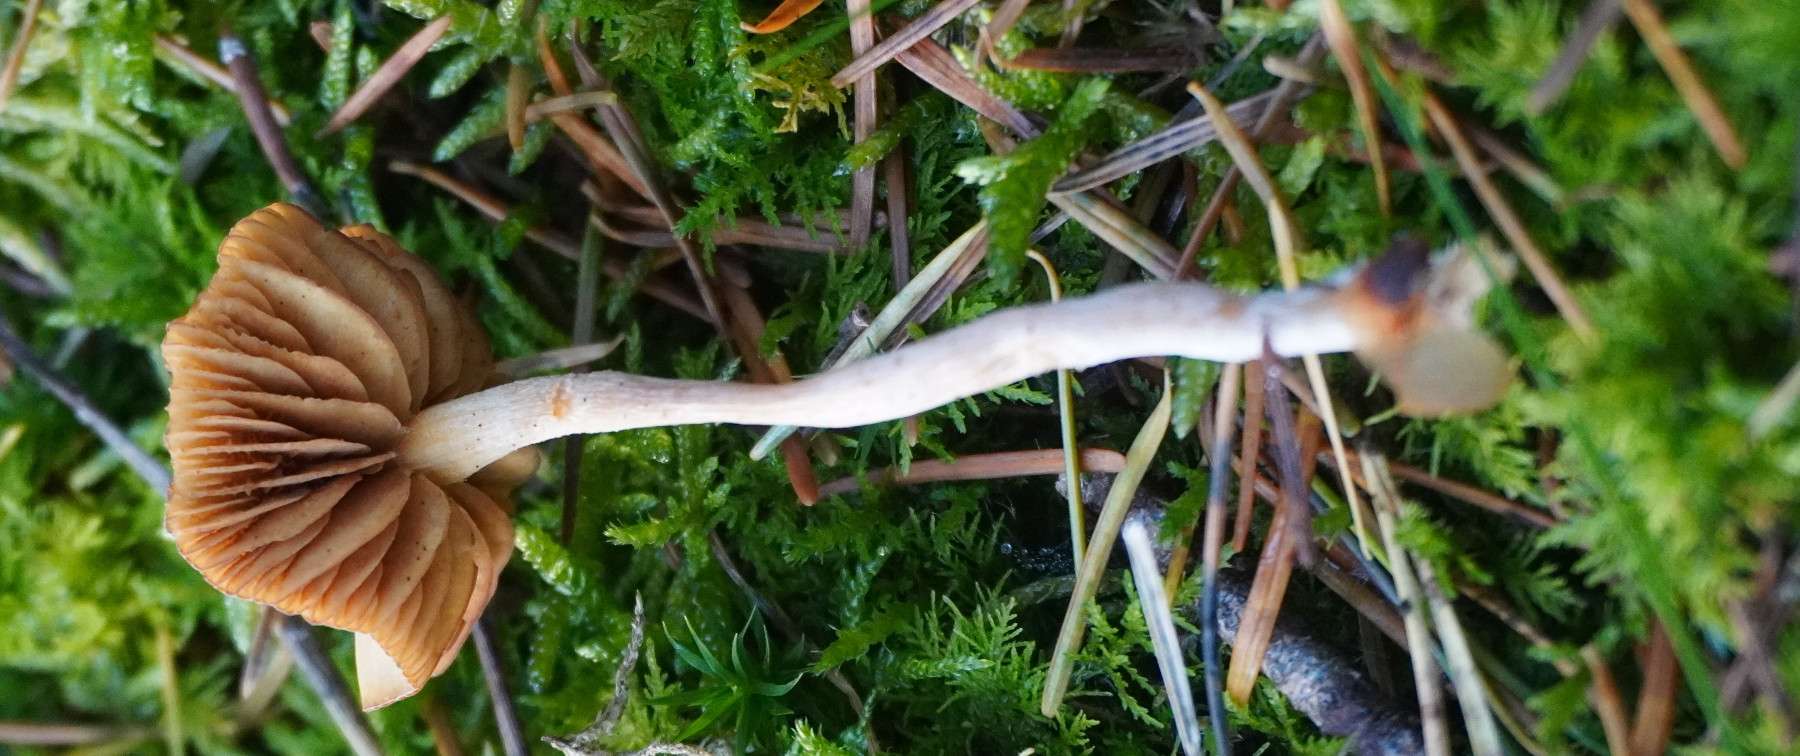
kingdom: Fungi
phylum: Basidiomycota
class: Agaricomycetes
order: Agaricales
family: Hydnangiaceae
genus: Laccaria
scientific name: Laccaria laccata
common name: rød ametysthat
